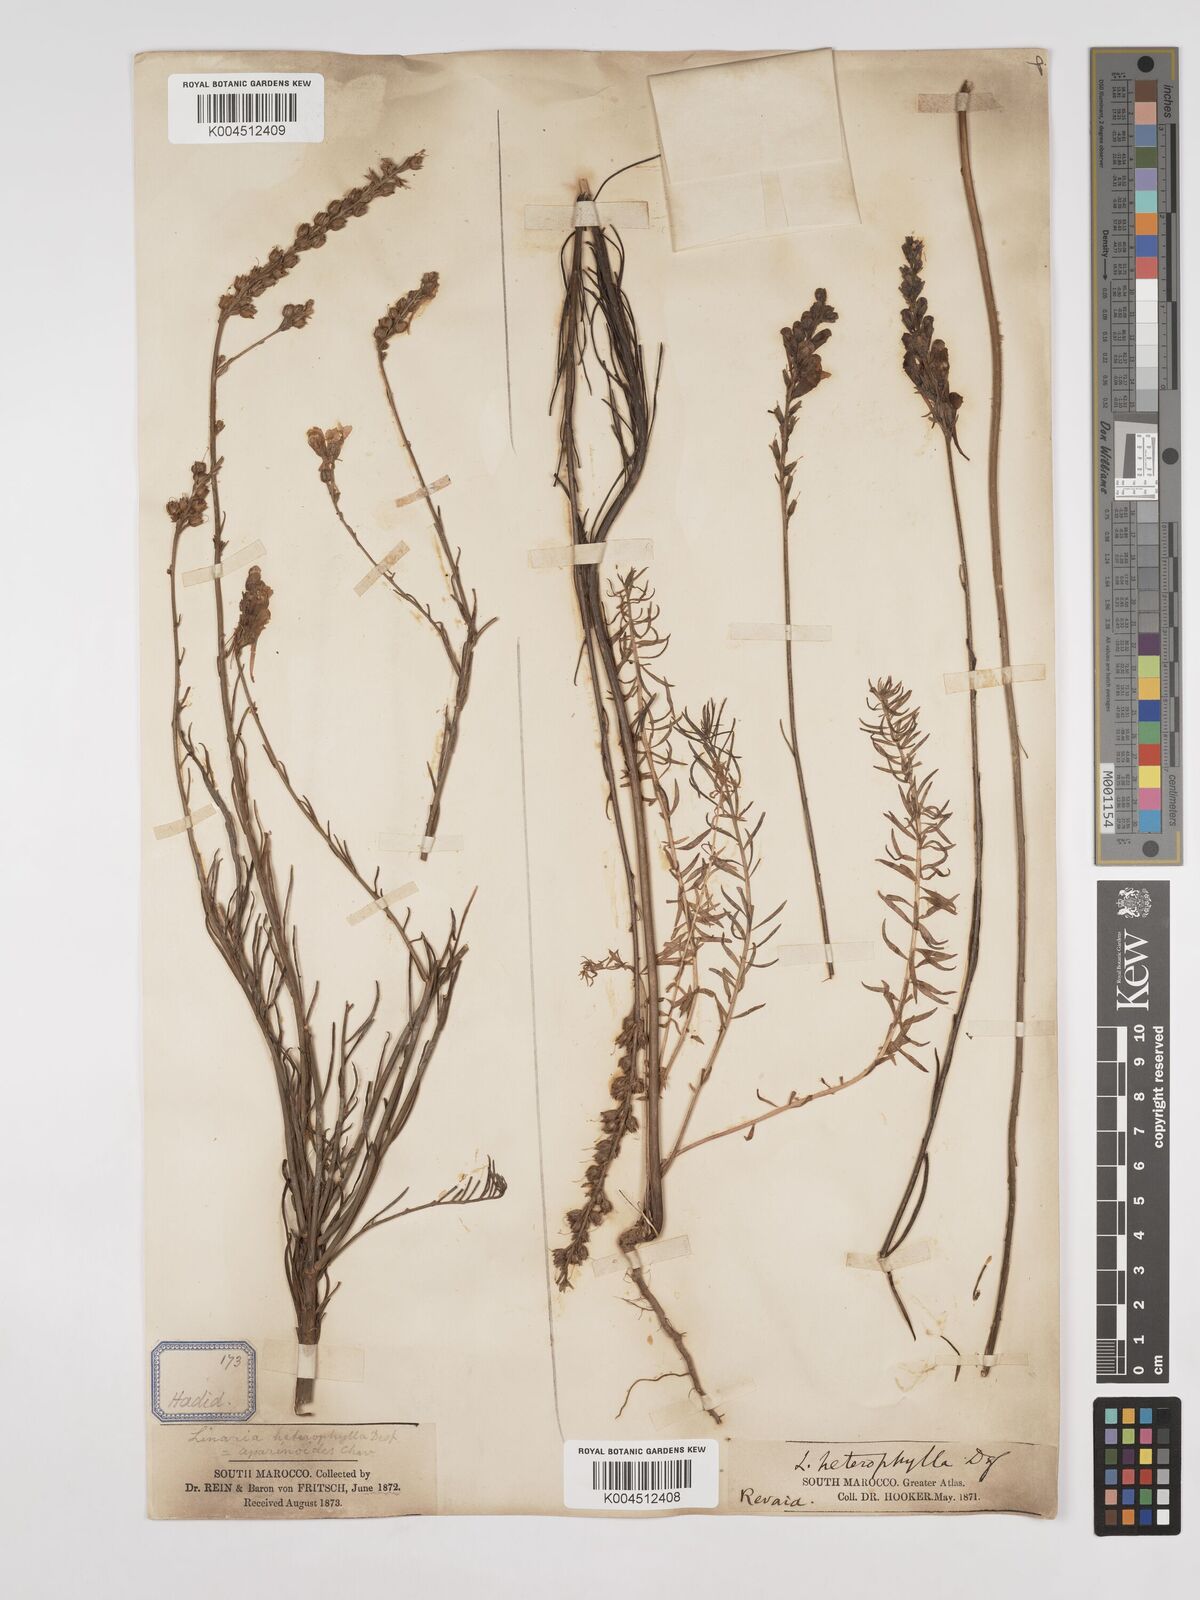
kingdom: Plantae
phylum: Tracheophyta
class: Magnoliopsida
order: Lamiales
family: Plantaginaceae
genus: Linaria
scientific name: Linaria multicaulis
